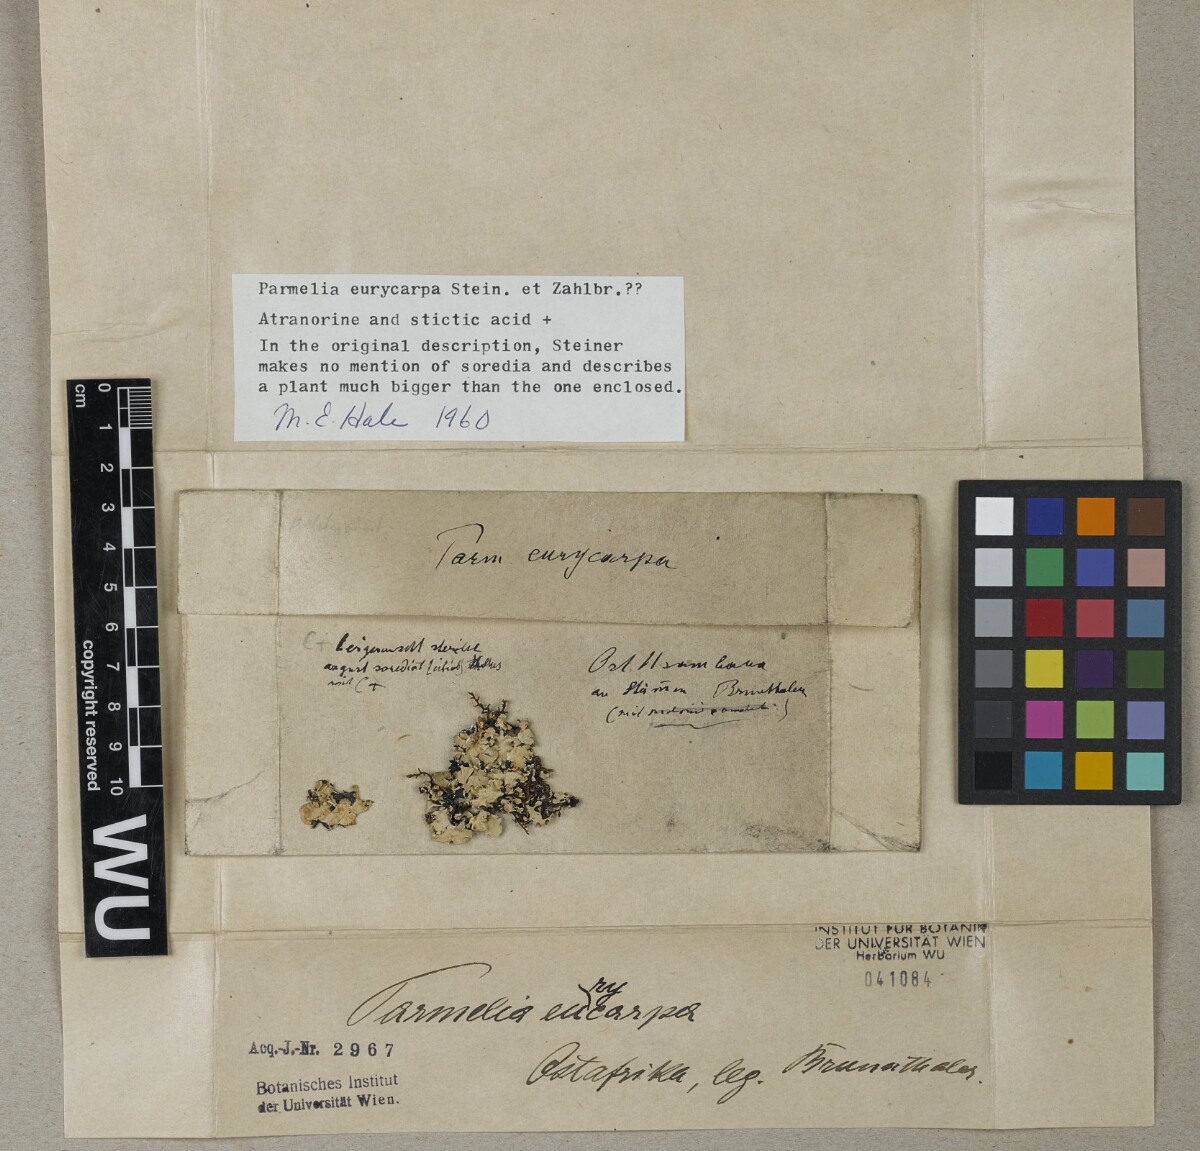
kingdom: Fungi
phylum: Ascomycota
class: Lecanoromycetes
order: Lecanorales
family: Parmeliaceae
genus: Parmelia
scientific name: Parmelia
